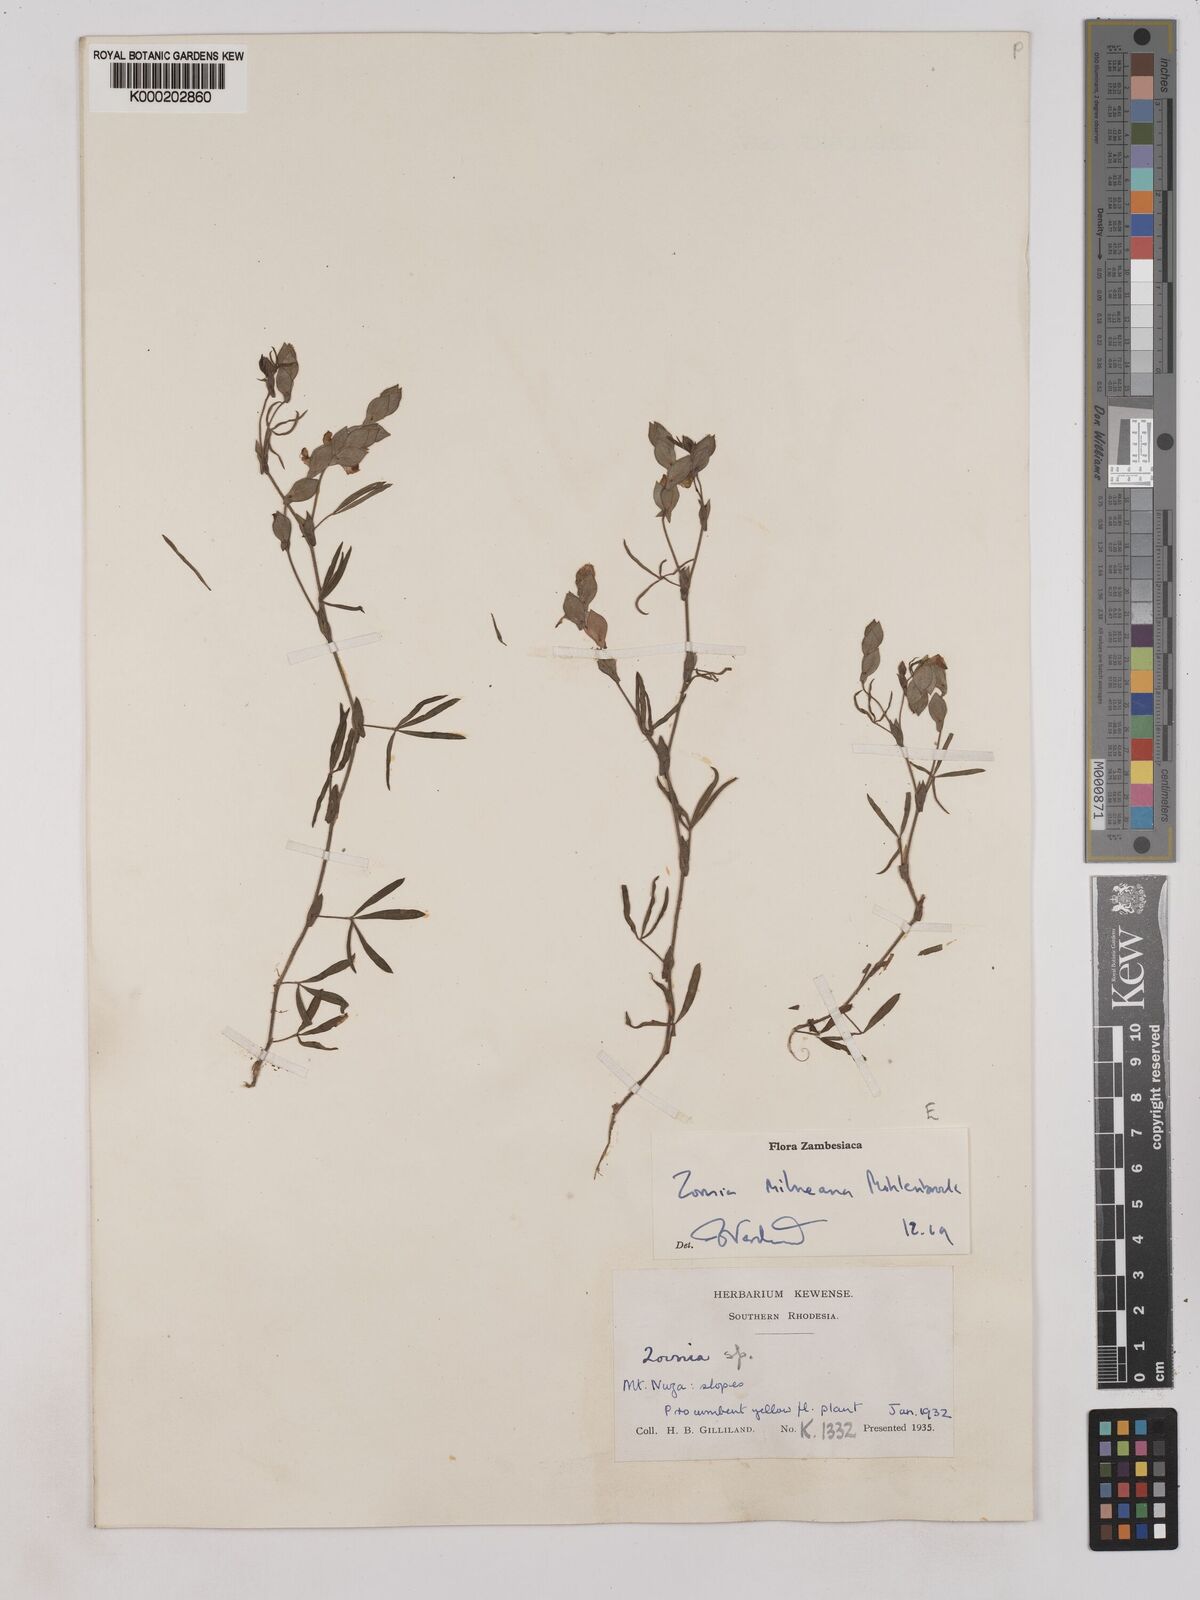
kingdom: Plantae
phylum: Tracheophyta
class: Magnoliopsida
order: Fabales
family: Fabaceae
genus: Zornia
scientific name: Zornia milneana
